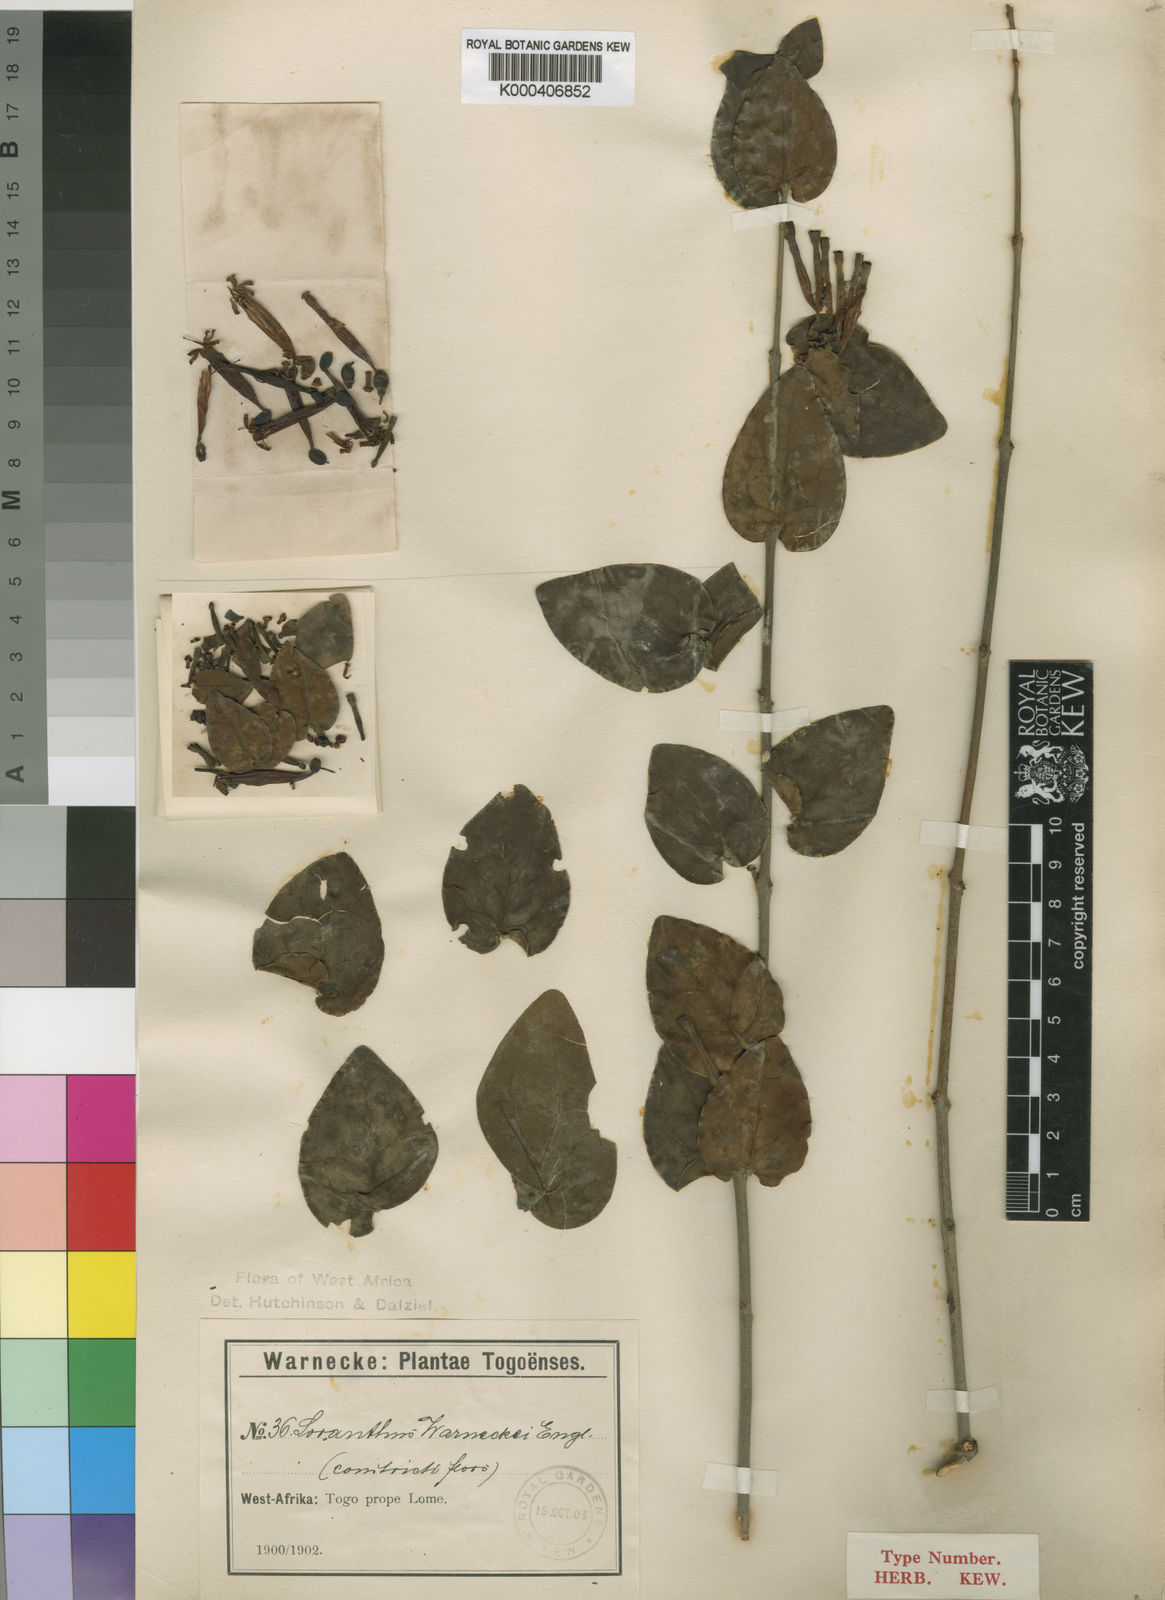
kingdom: Plantae
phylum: Tracheophyta
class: Magnoliopsida
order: Santalales
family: Loranthaceae
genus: Tapinanthus
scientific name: Tapinanthus sessilifolius
